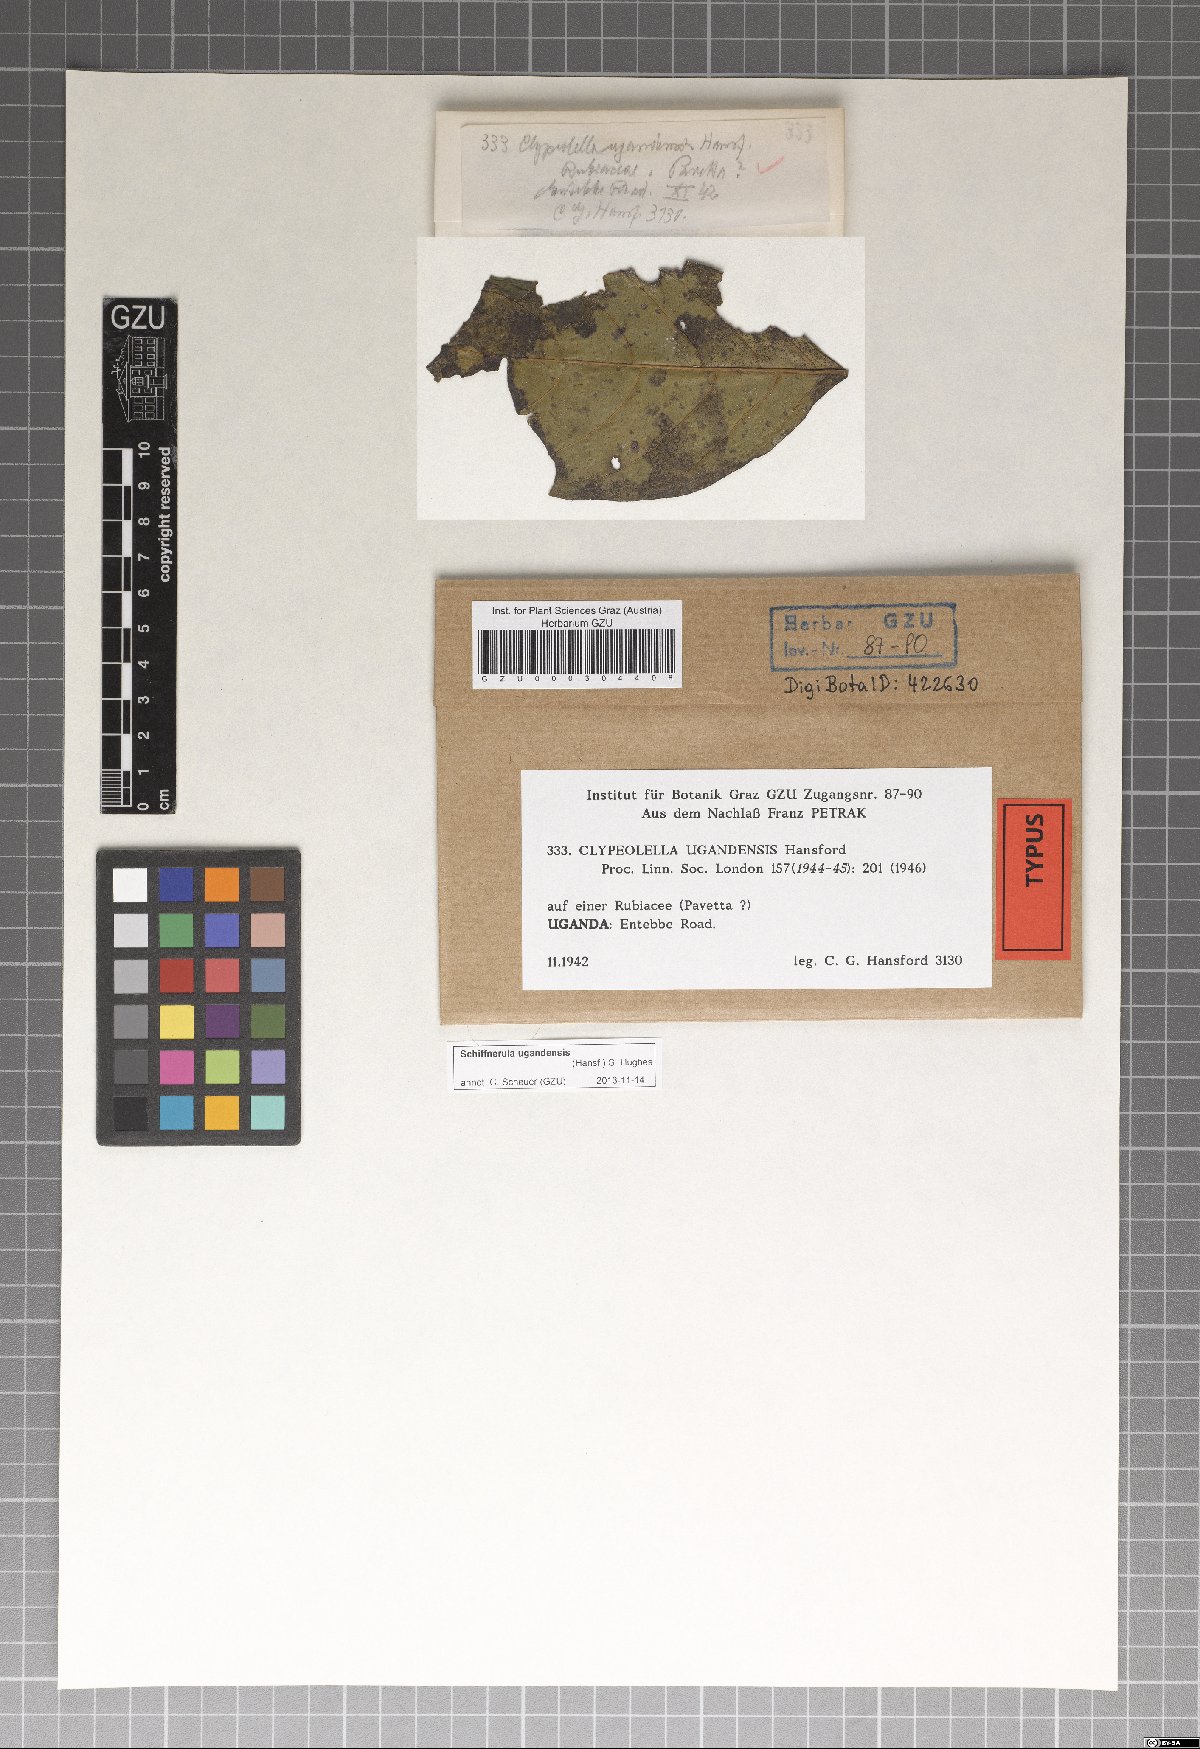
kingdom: Fungi
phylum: Ascomycota
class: Dothideomycetes
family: Englerulaceae
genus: Schiffnerula
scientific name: Schiffnerula ugandensis
